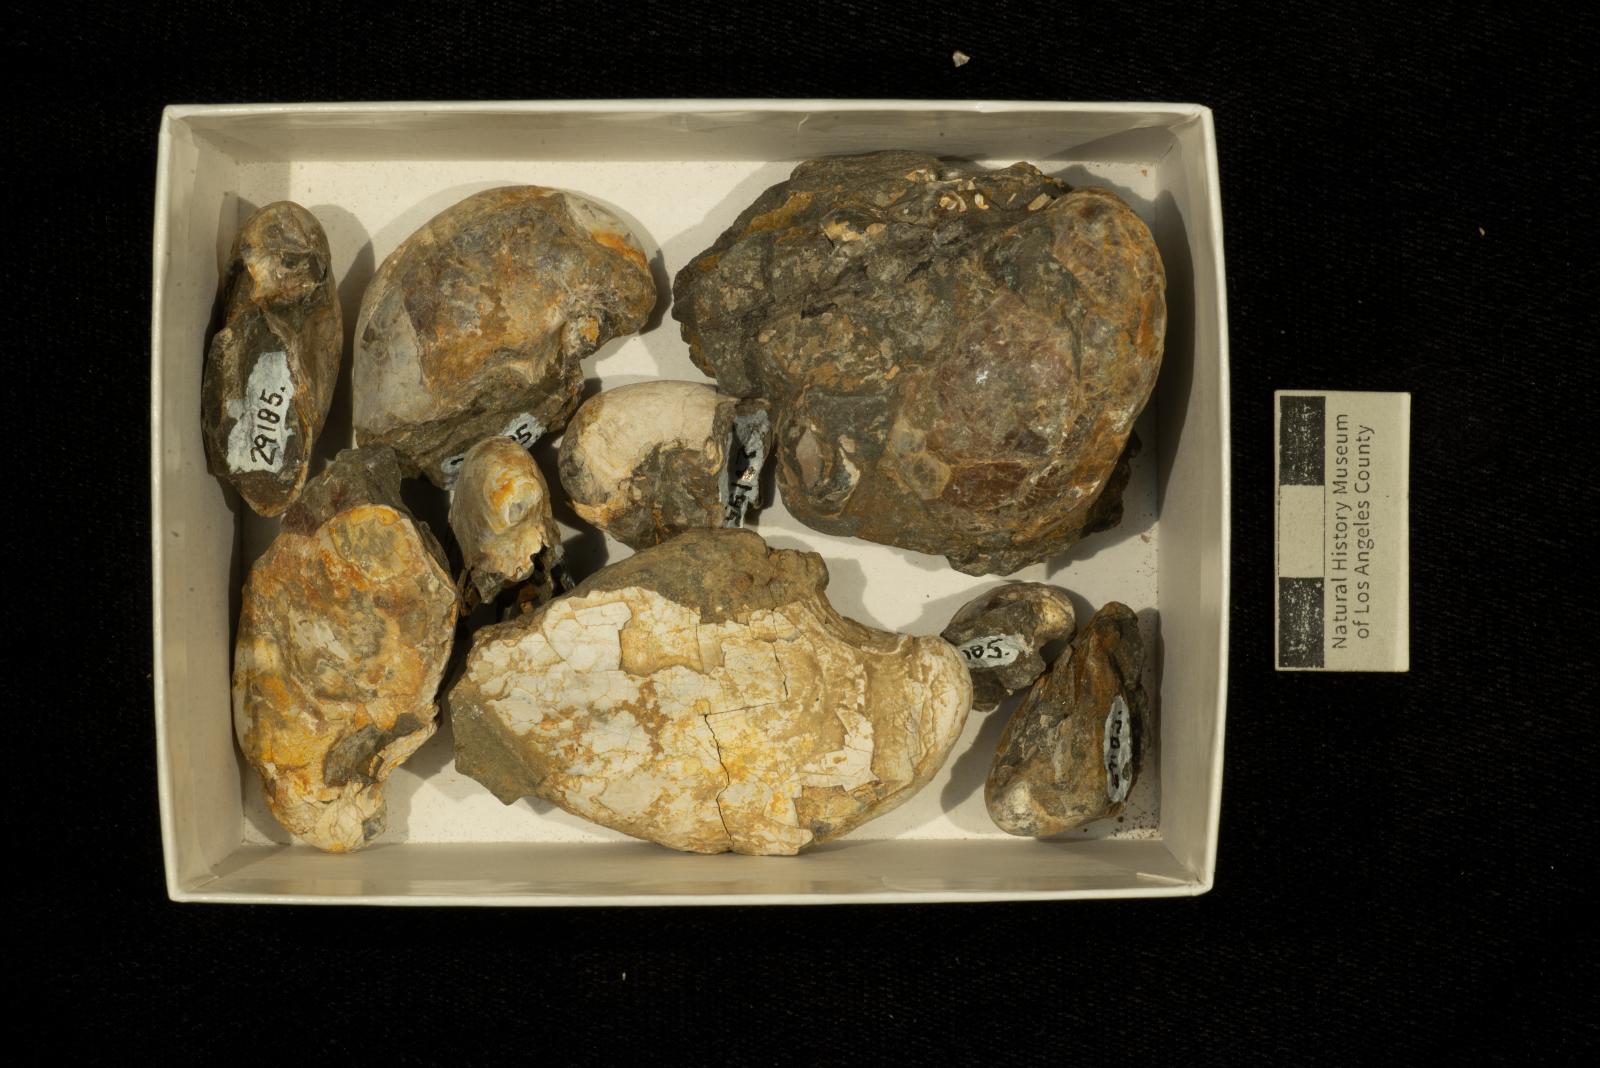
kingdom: Animalia
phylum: Mollusca
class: Bivalvia
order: Ostreida
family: Gryphaeidae
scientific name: Gryphaeidae
